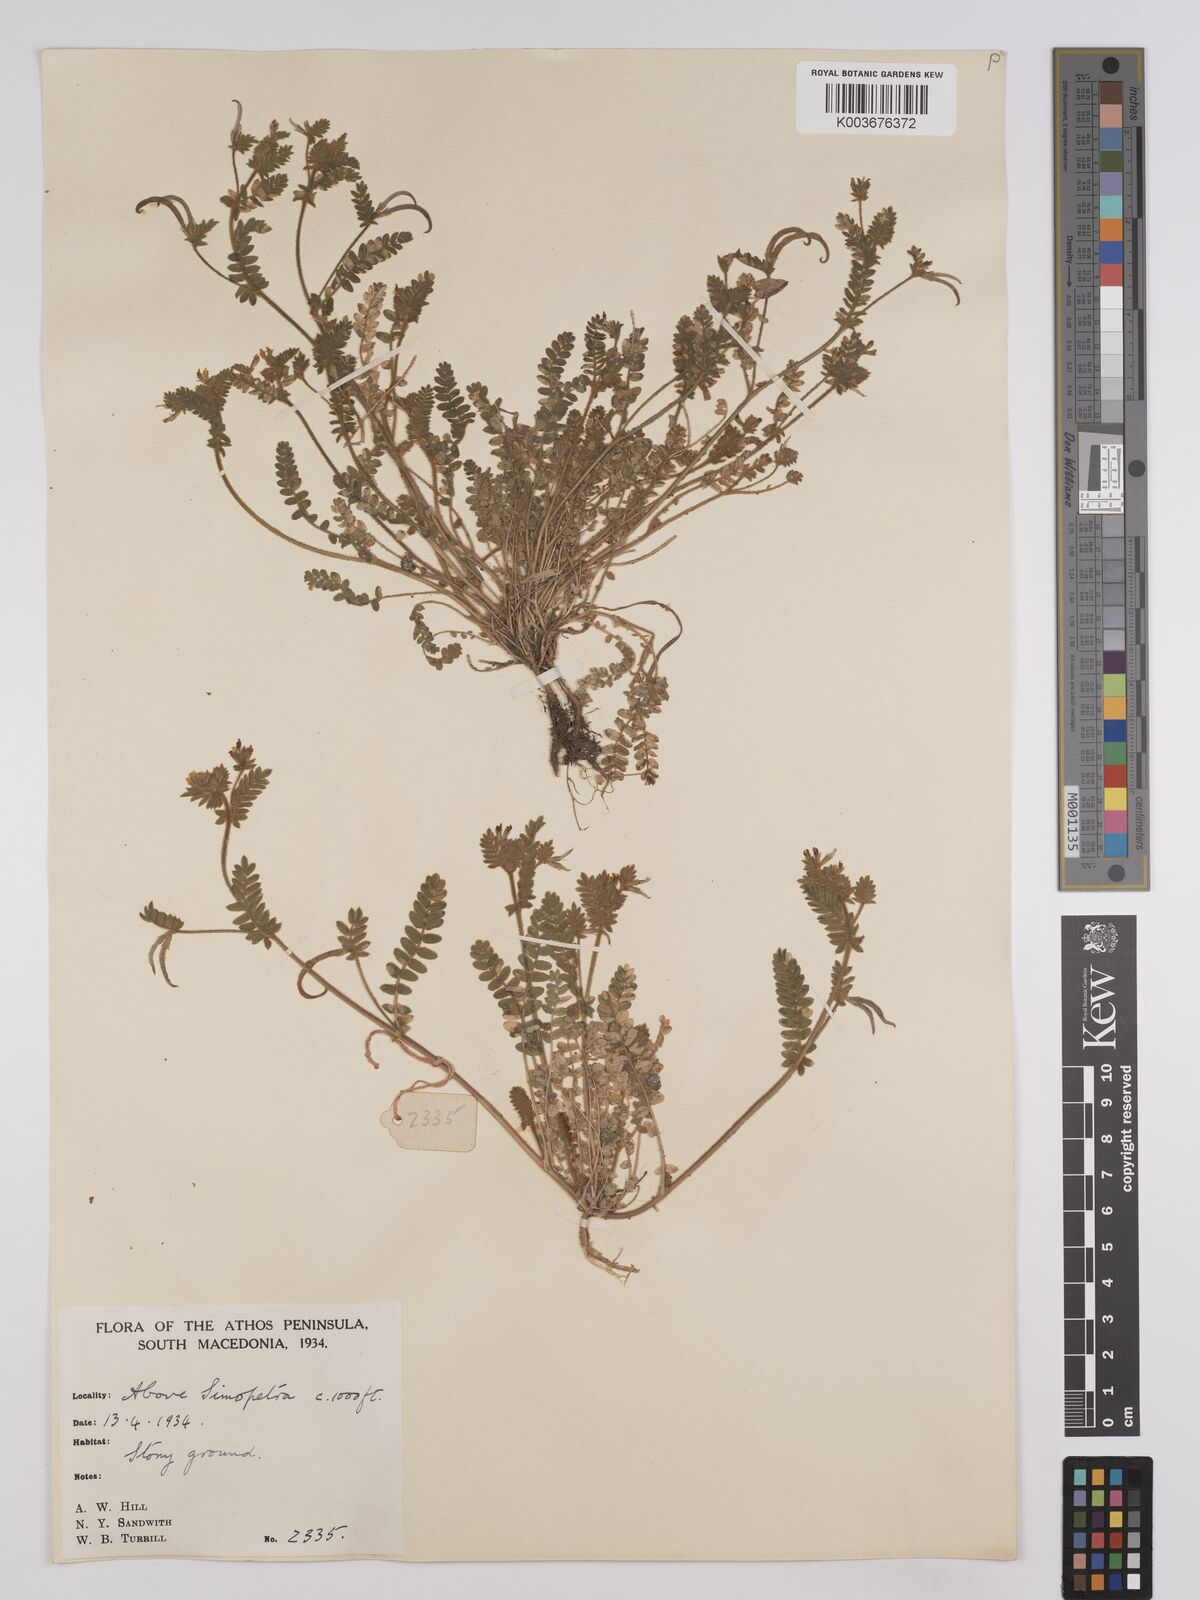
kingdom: Plantae
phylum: Tracheophyta
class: Magnoliopsida
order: Fabales
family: Fabaceae
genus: Ornithopus
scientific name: Ornithopus compressus
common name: Yellow serradella
